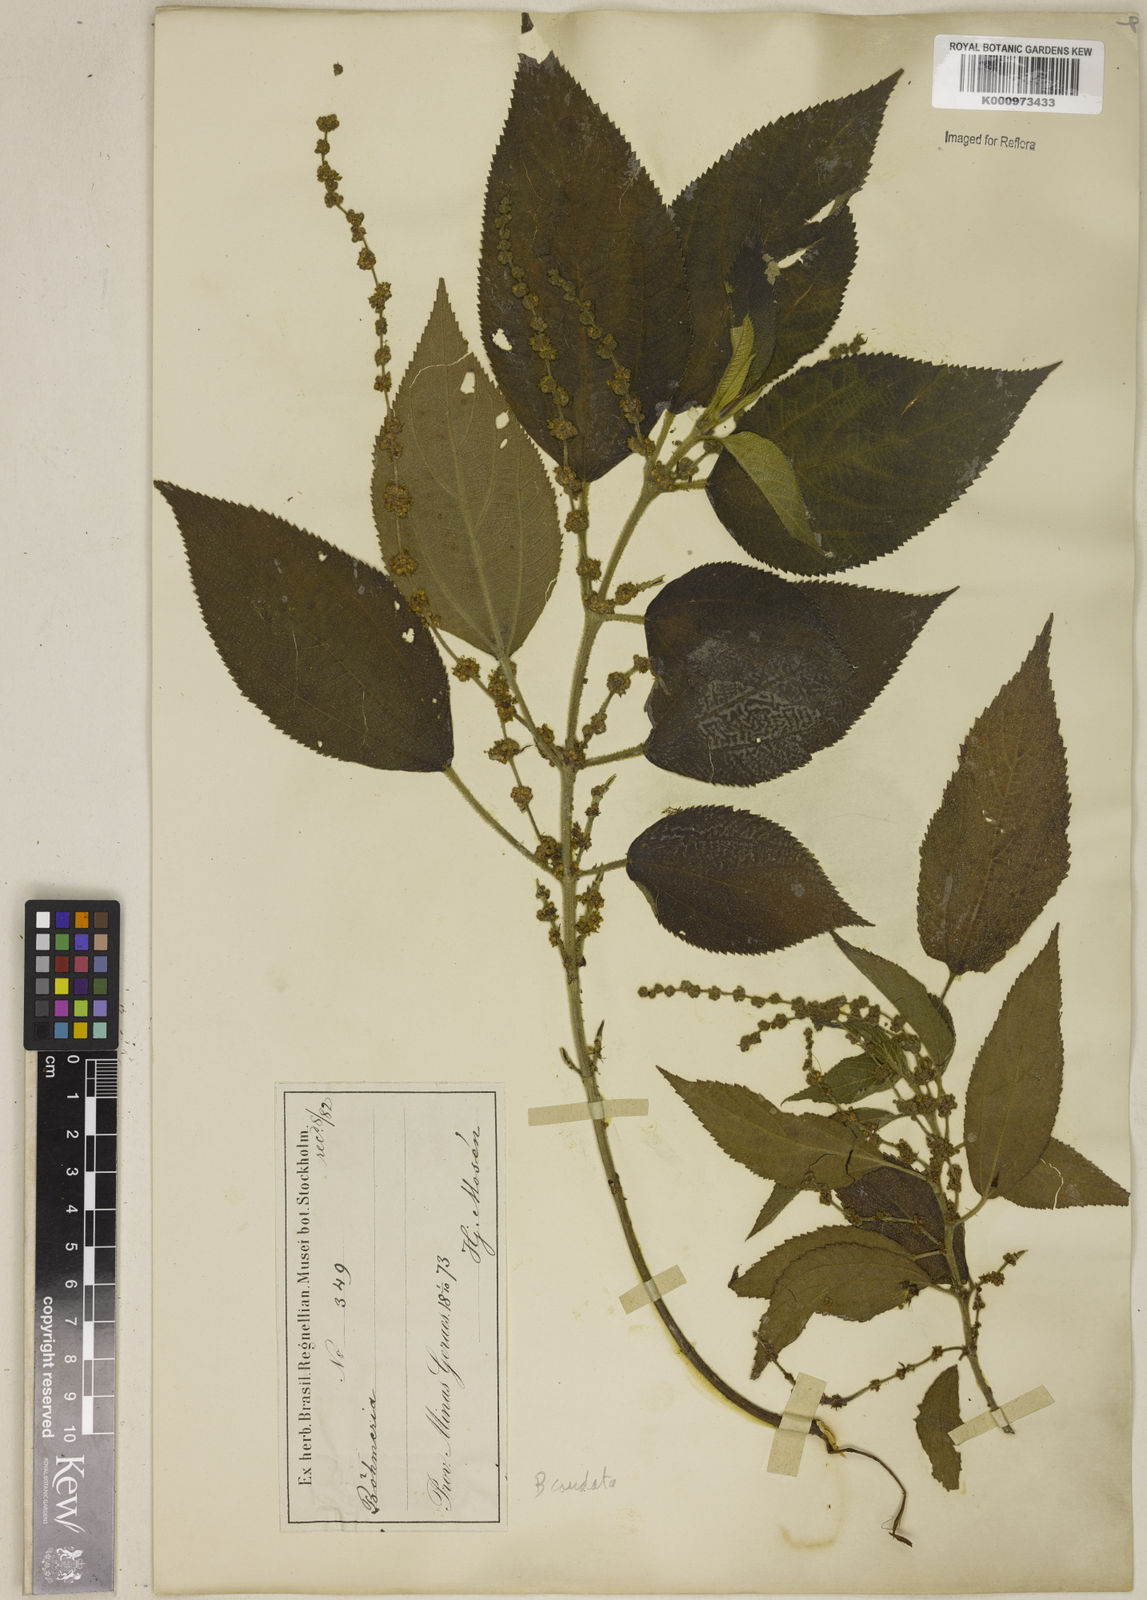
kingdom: Plantae
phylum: Tracheophyta
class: Magnoliopsida
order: Rosales
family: Urticaceae
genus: Boehmeria
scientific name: Boehmeria caudata
